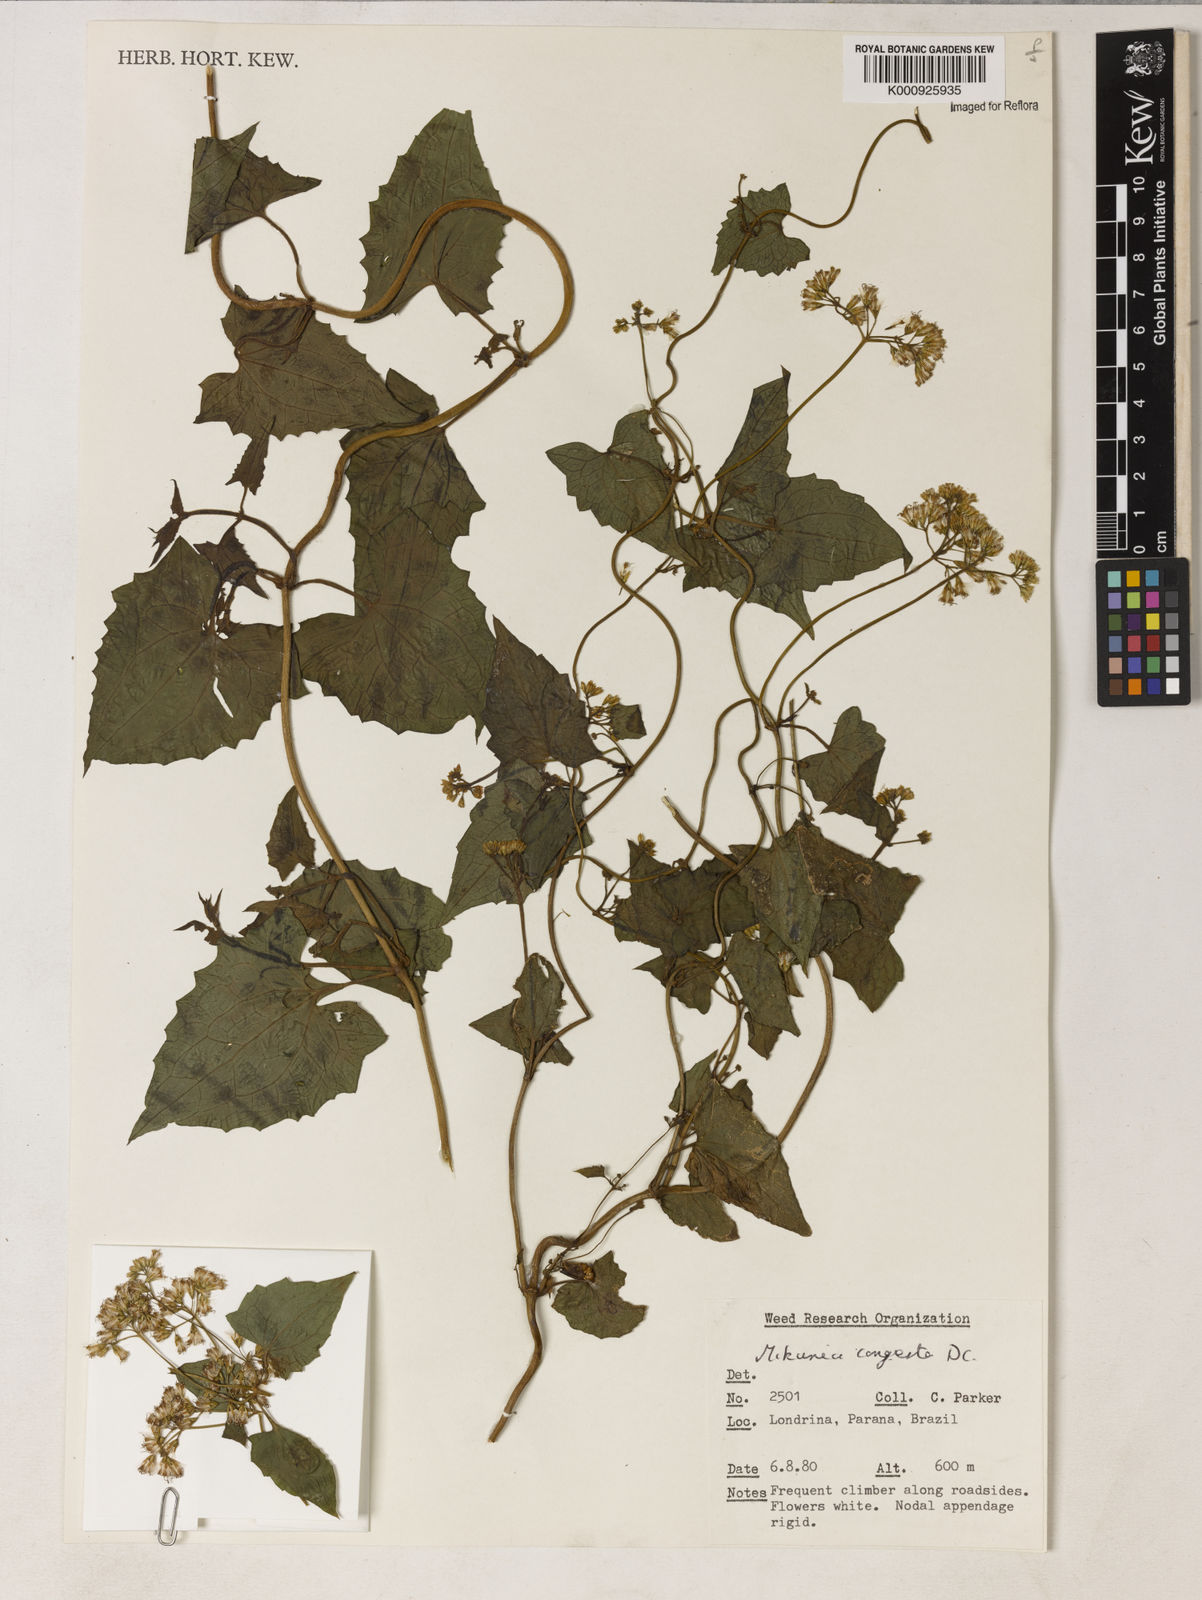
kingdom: Plantae
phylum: Tracheophyta
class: Magnoliopsida
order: Asterales
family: Asteraceae
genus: Mikania
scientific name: Mikania congesta
